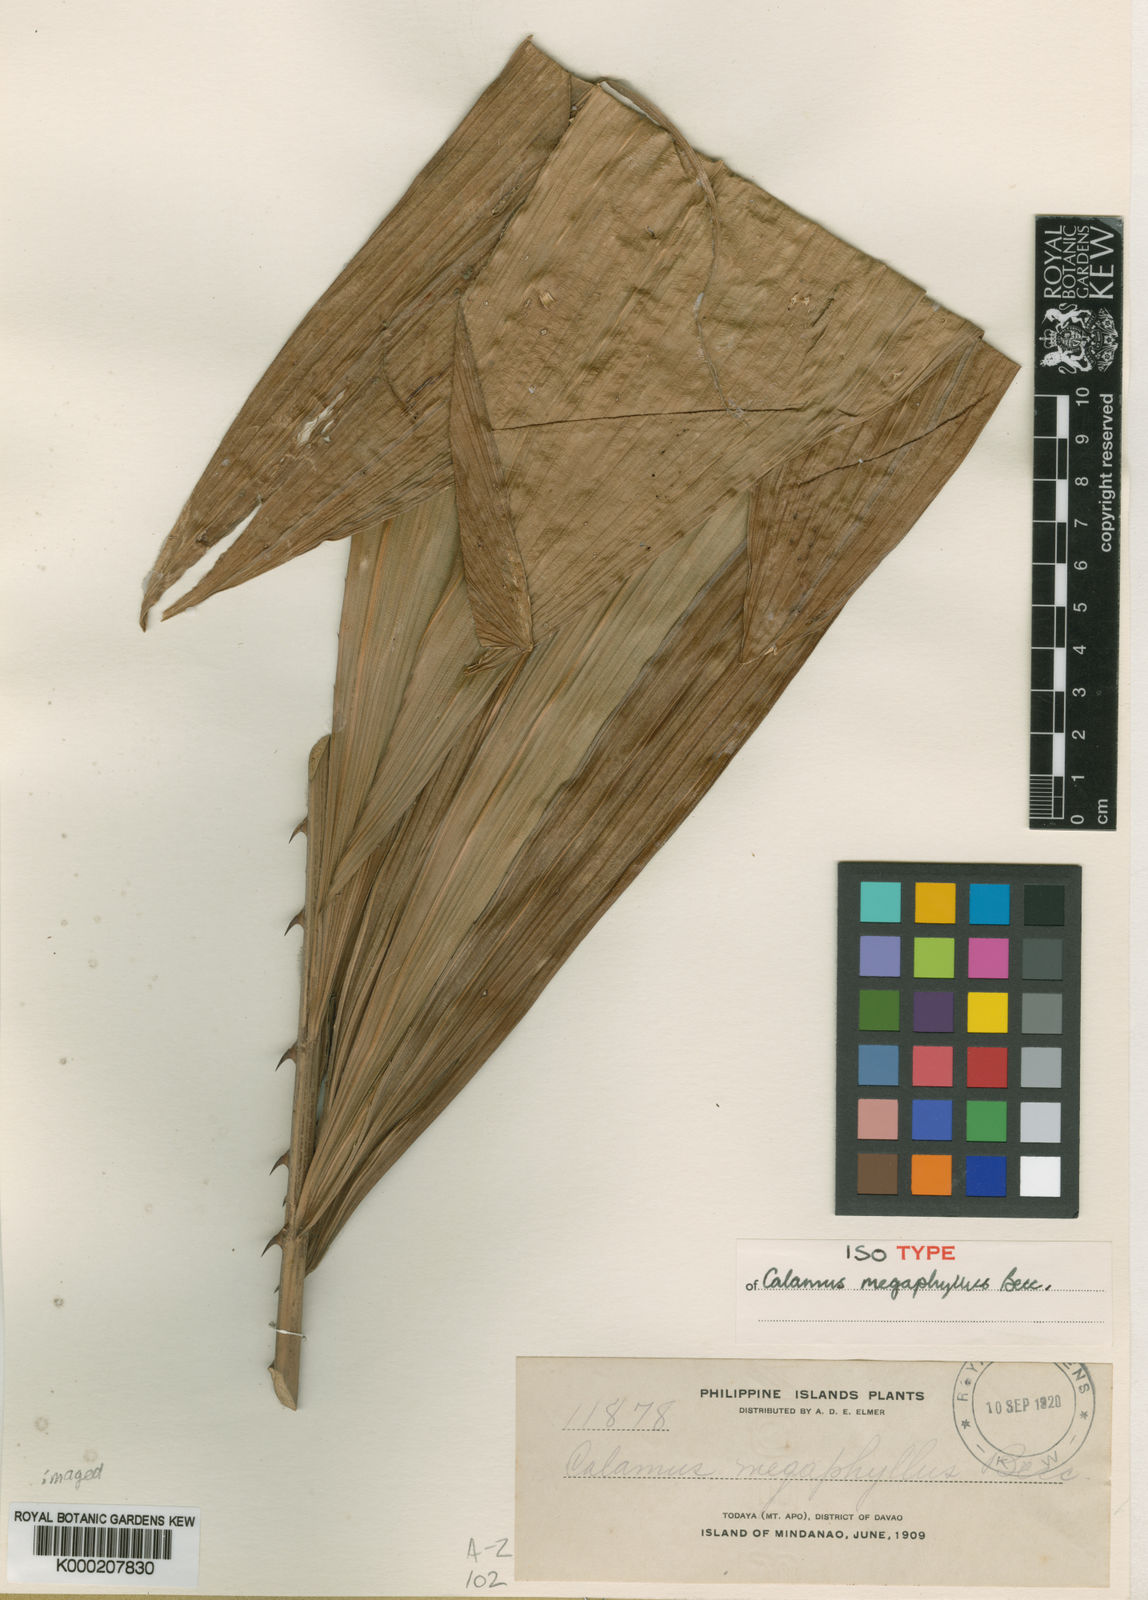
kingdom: Plantae
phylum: Tracheophyta
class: Liliopsida
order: Arecales
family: Arecaceae
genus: Calamus
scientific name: Calamus megaphyllus
